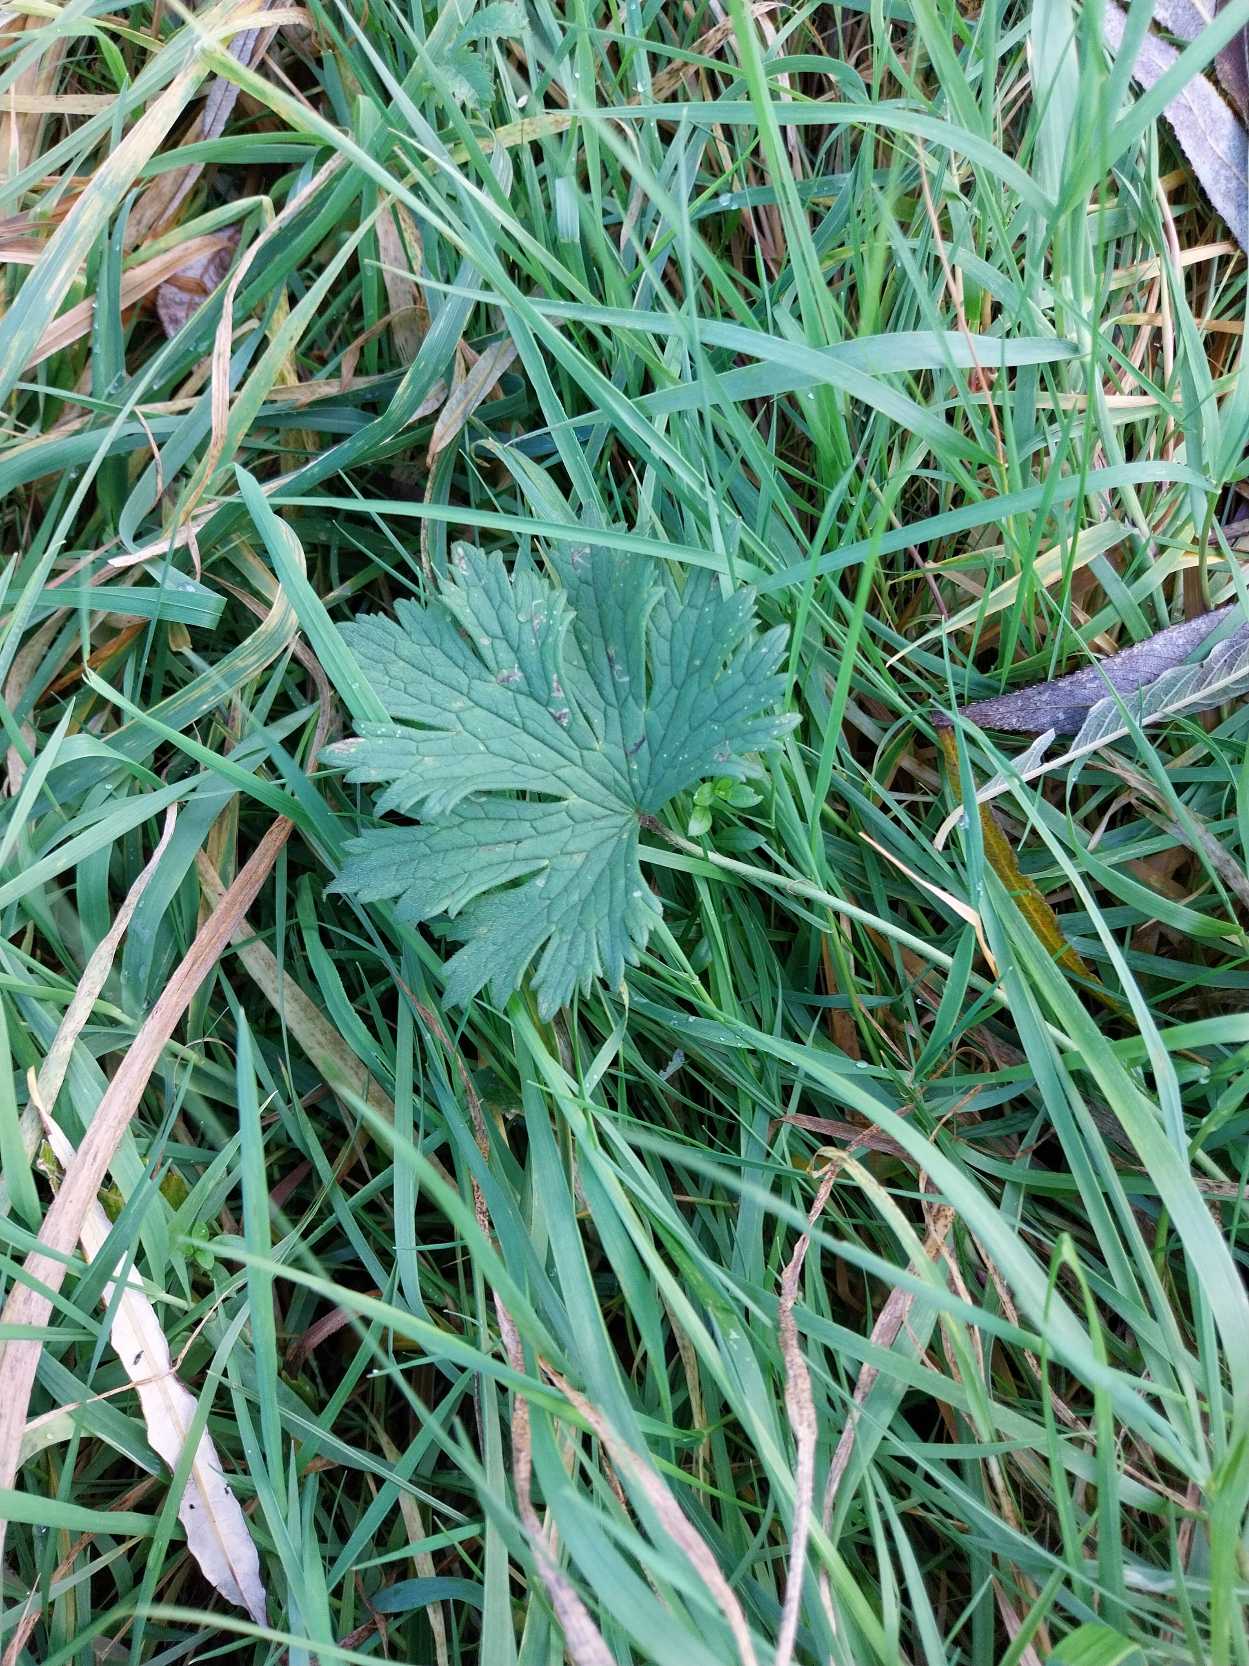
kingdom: Plantae
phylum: Tracheophyta
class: Magnoliopsida
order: Ranunculales
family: Ranunculaceae
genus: Ranunculus
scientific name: Ranunculus acris
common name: Bidende ranunkel
